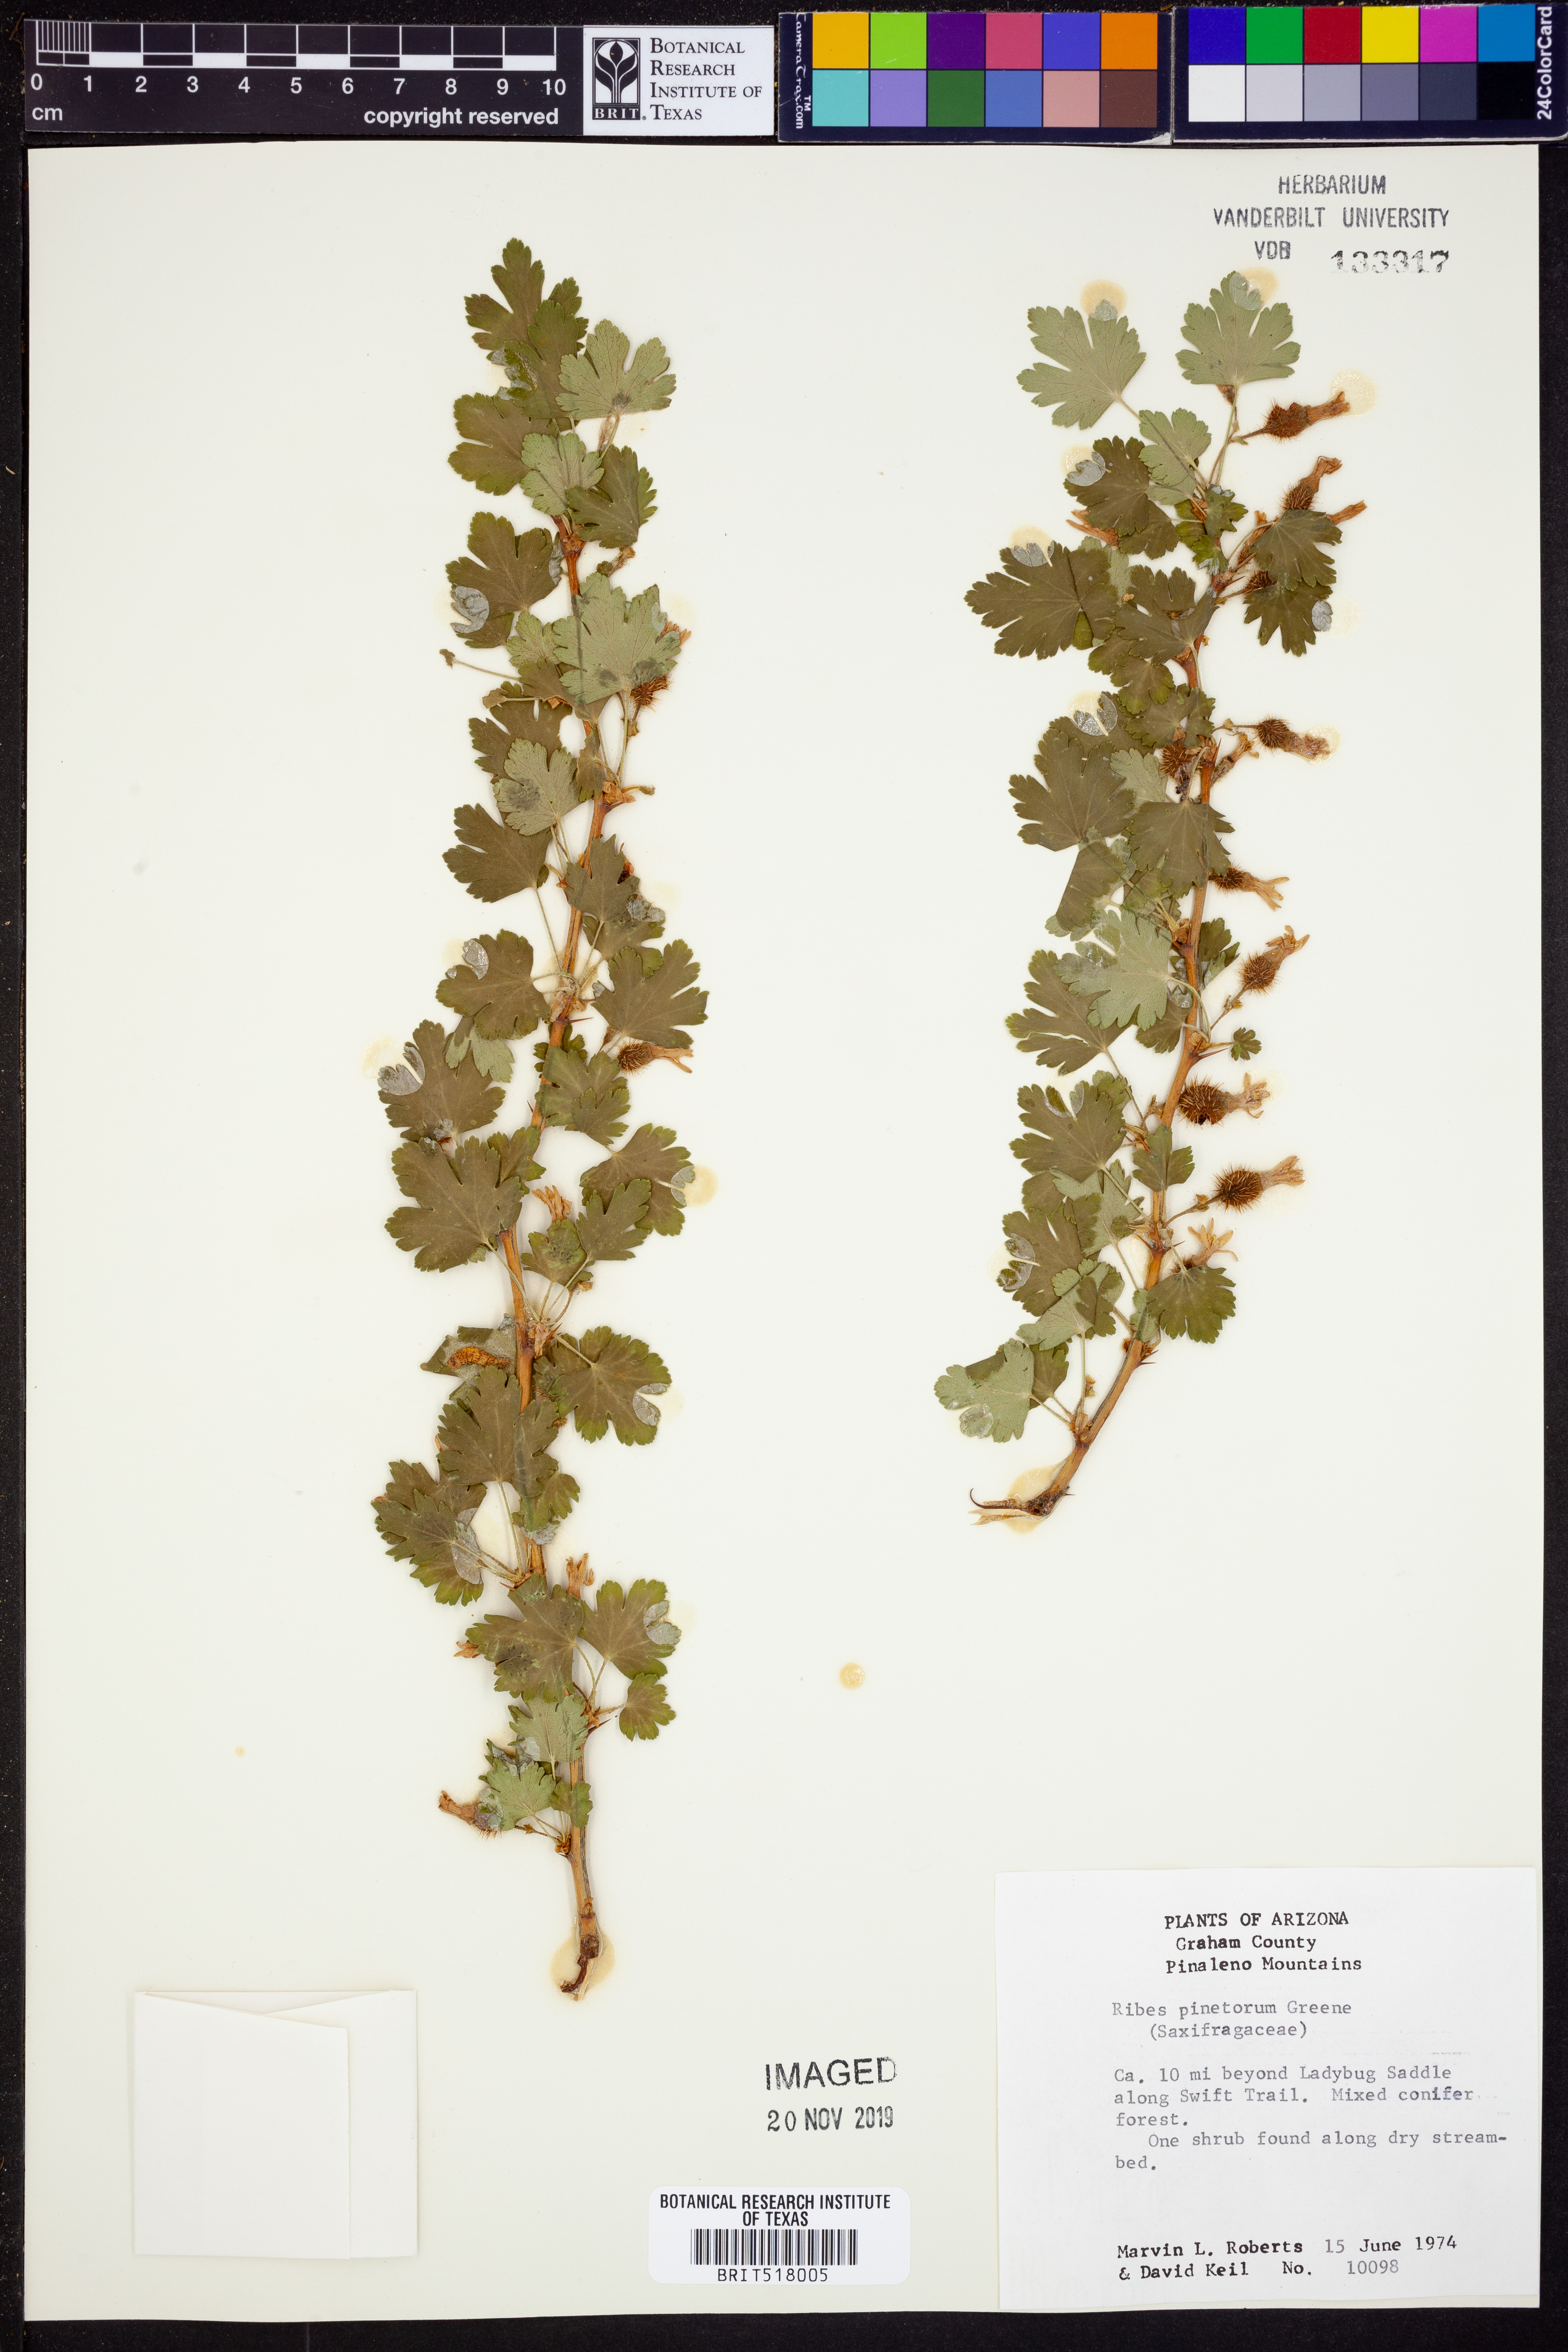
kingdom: Plantae
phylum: Tracheophyta
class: Magnoliopsida
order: Saxifragales
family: Grossulariaceae
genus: Ribes
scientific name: Ribes pinetorum
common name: Orange gooseberry
